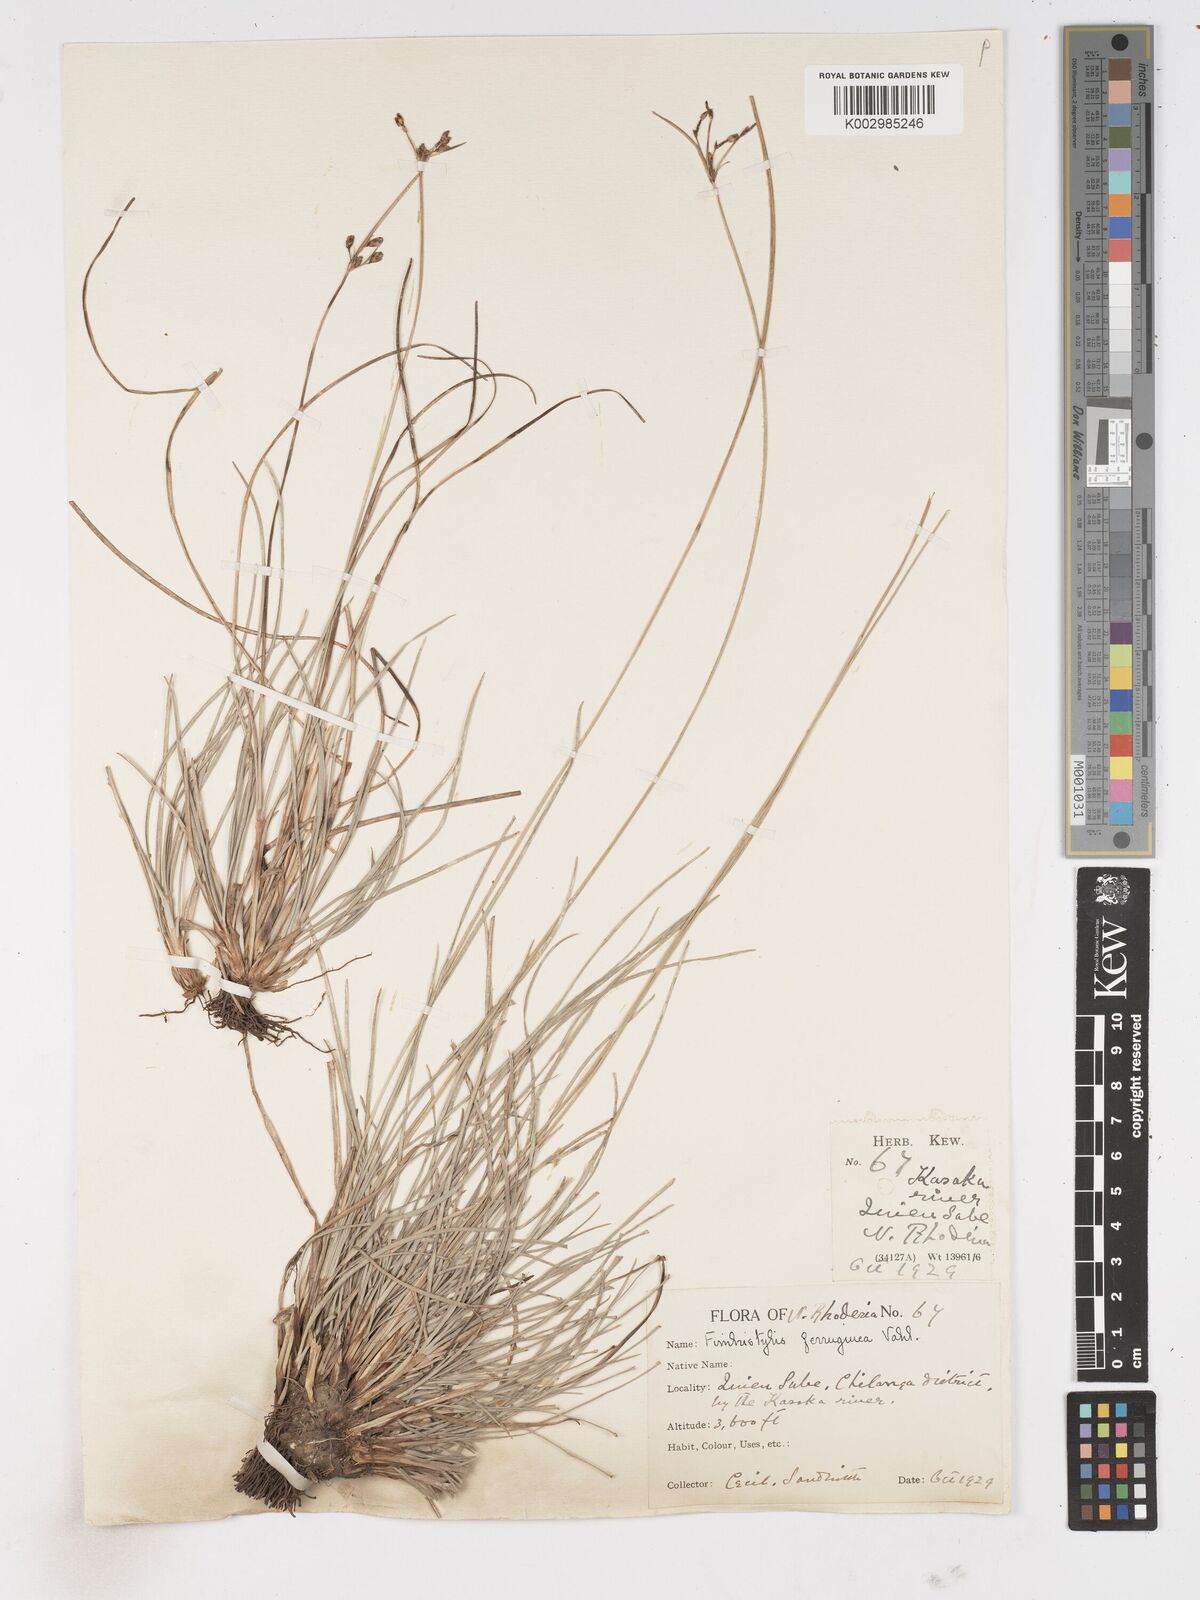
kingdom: Plantae
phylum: Tracheophyta
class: Liliopsida
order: Poales
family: Cyperaceae
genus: Fimbristylis
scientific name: Fimbristylis ferruginea
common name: West indian fimbry
